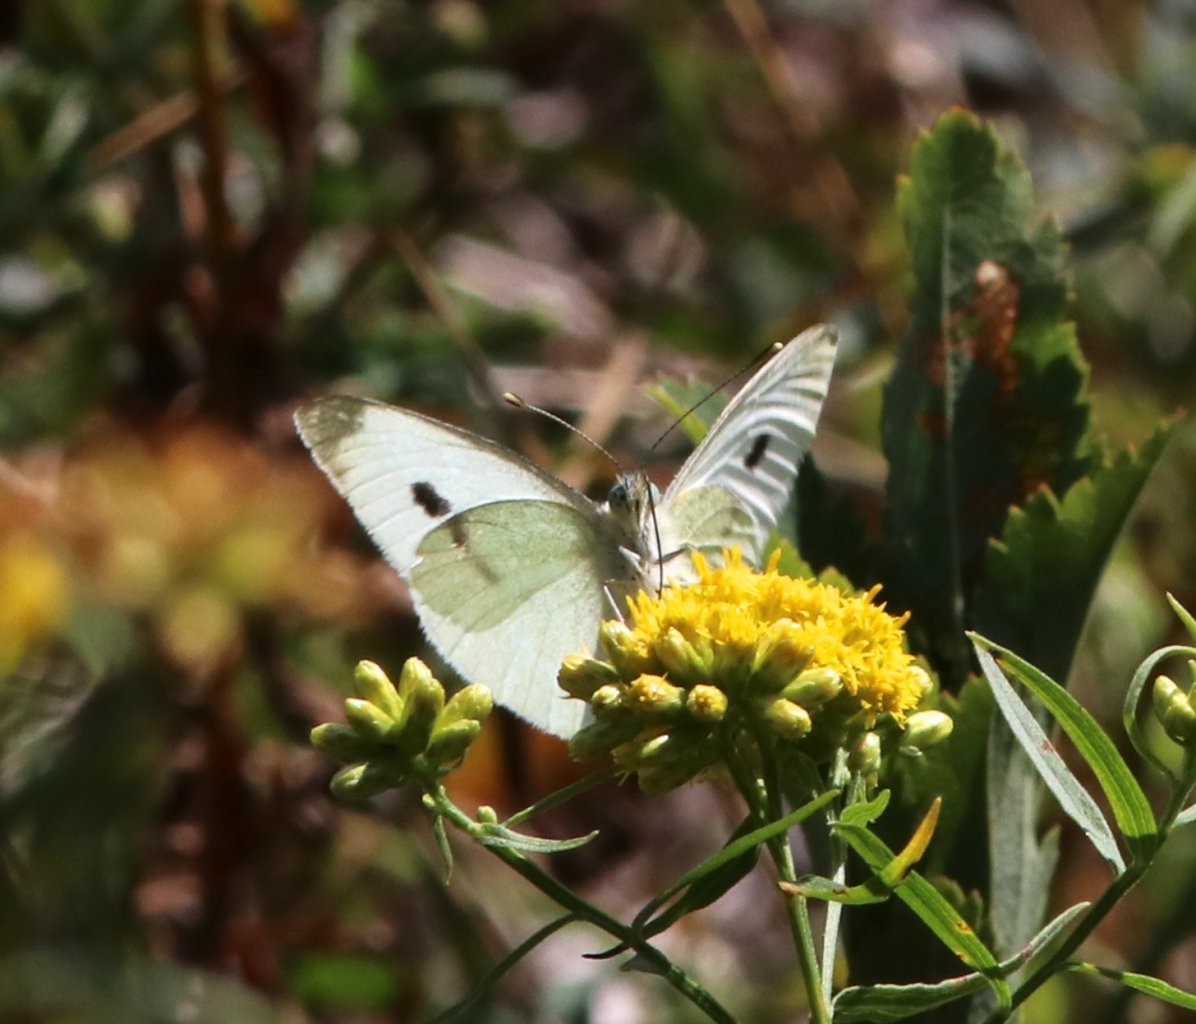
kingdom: Animalia
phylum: Arthropoda
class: Insecta
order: Lepidoptera
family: Pieridae
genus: Pieris
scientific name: Pieris rapae
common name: Cabbage White
